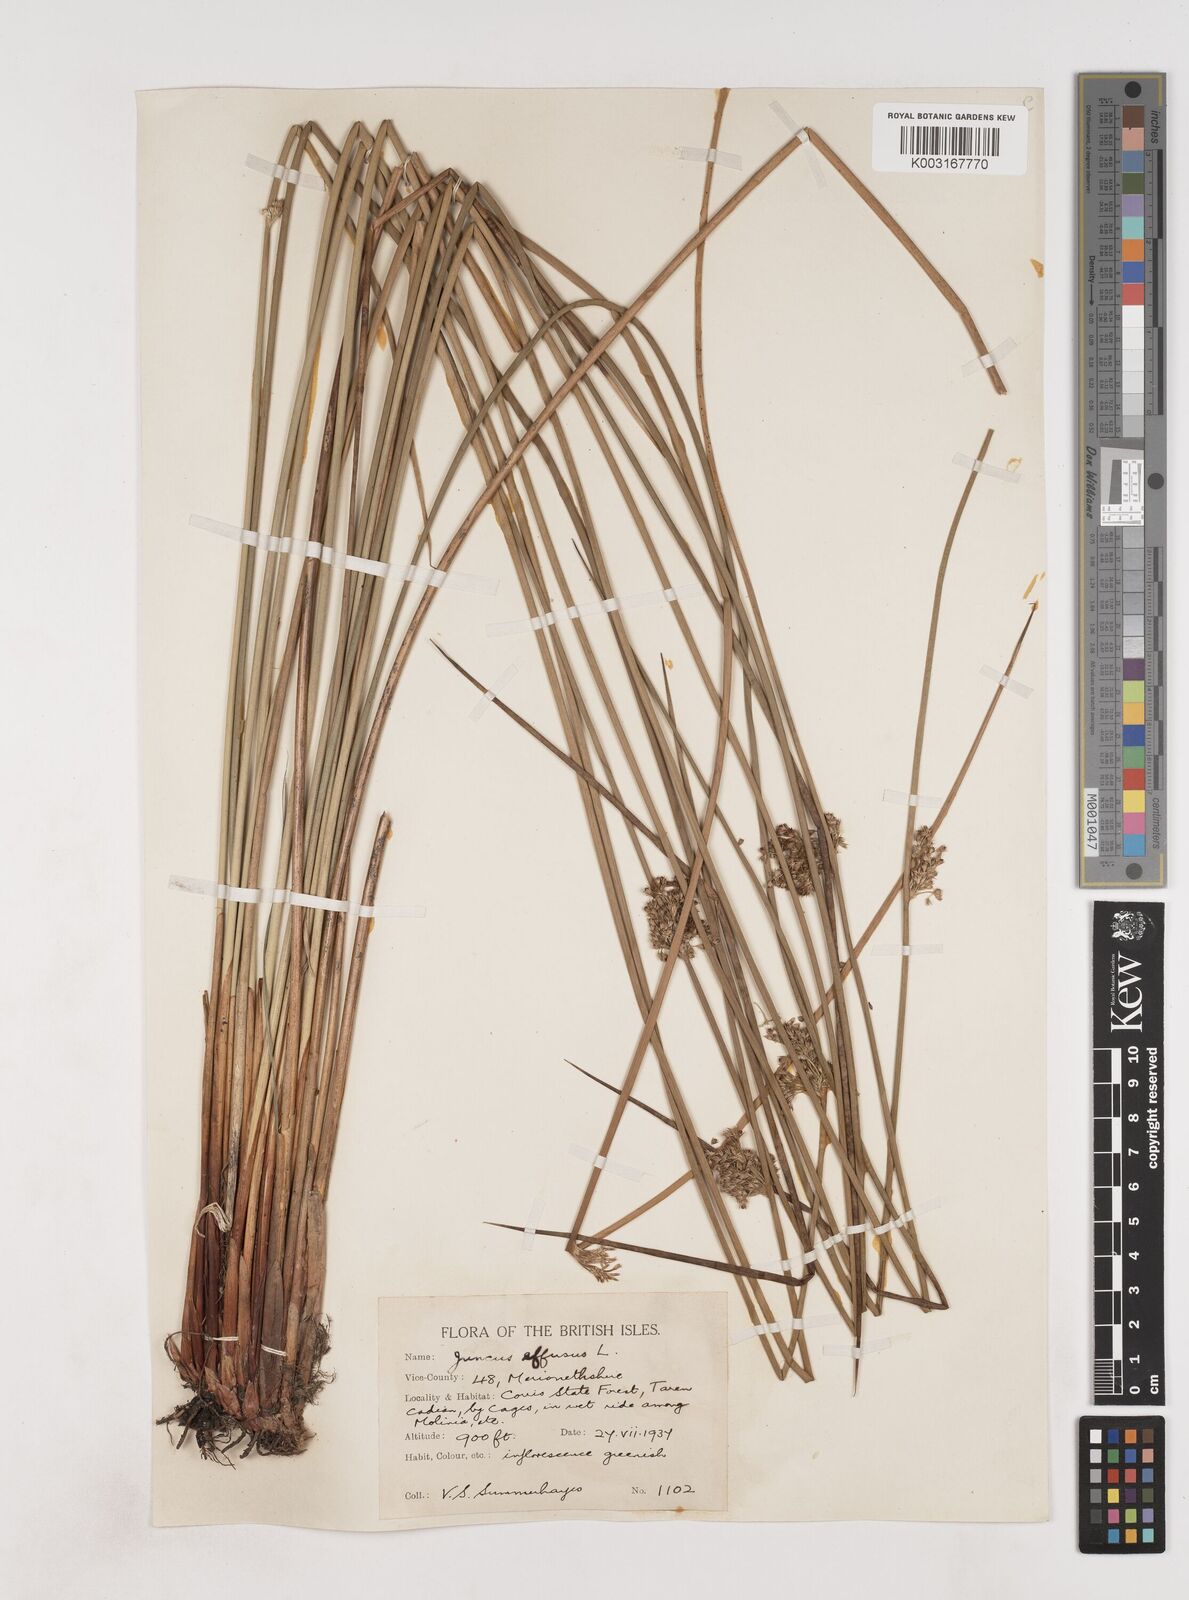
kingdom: Plantae
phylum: Tracheophyta
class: Liliopsida
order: Poales
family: Juncaceae
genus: Juncus
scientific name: Juncus effusus
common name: Soft rush
